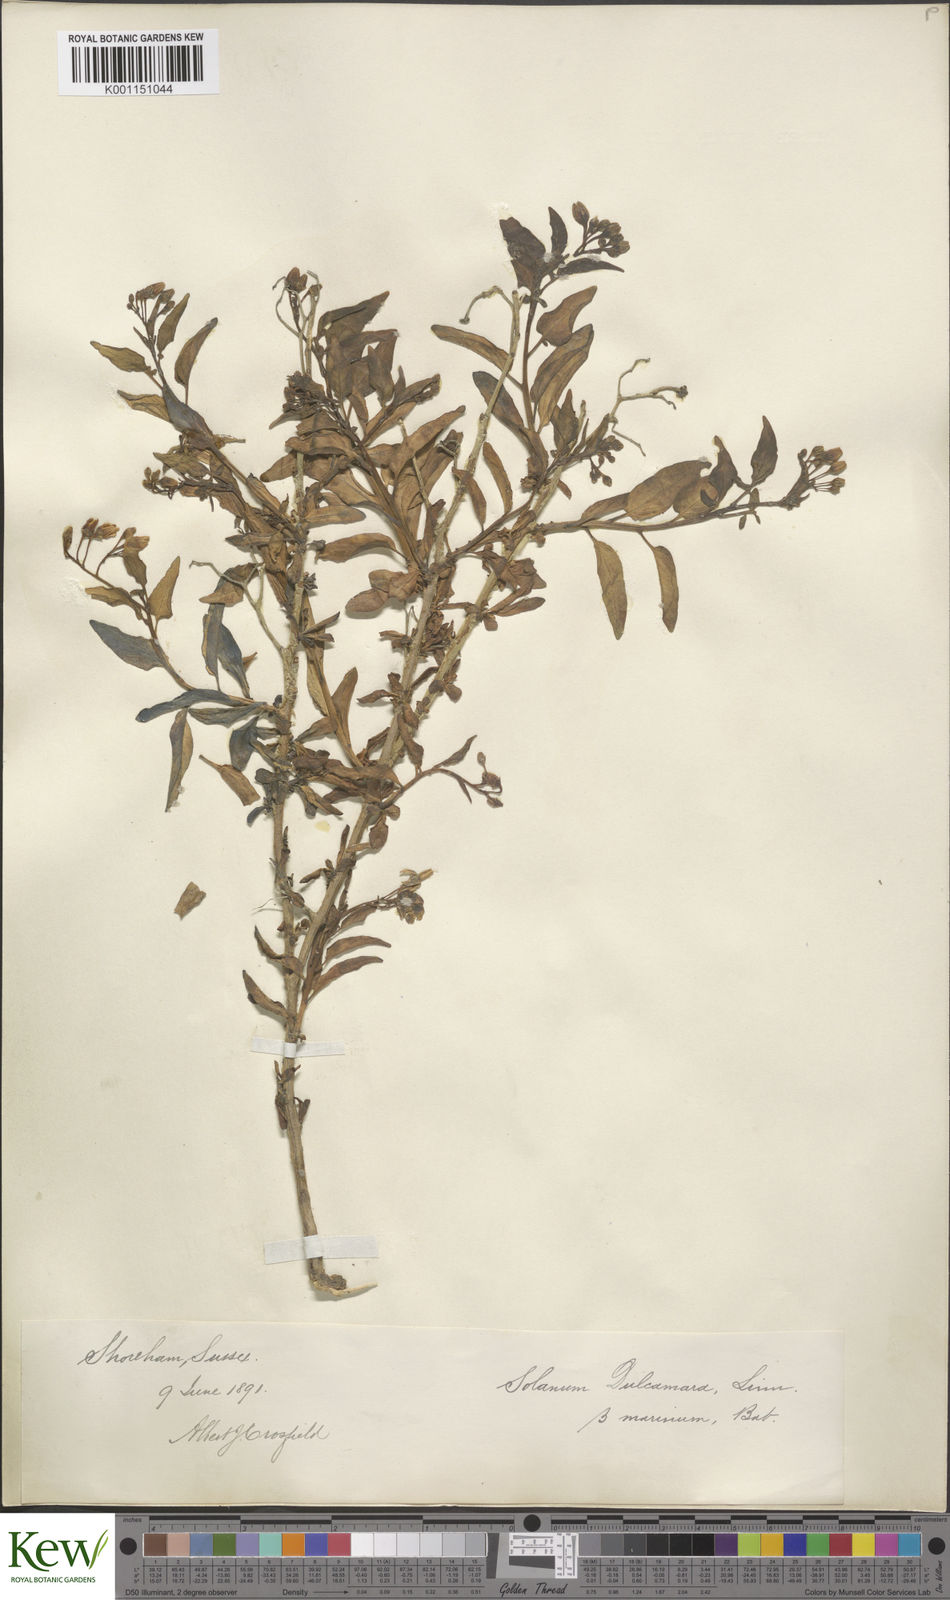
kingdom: Plantae
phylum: Tracheophyta
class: Magnoliopsida
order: Solanales
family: Solanaceae
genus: Solanum
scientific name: Solanum dulcamara
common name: Climbing nightshade
